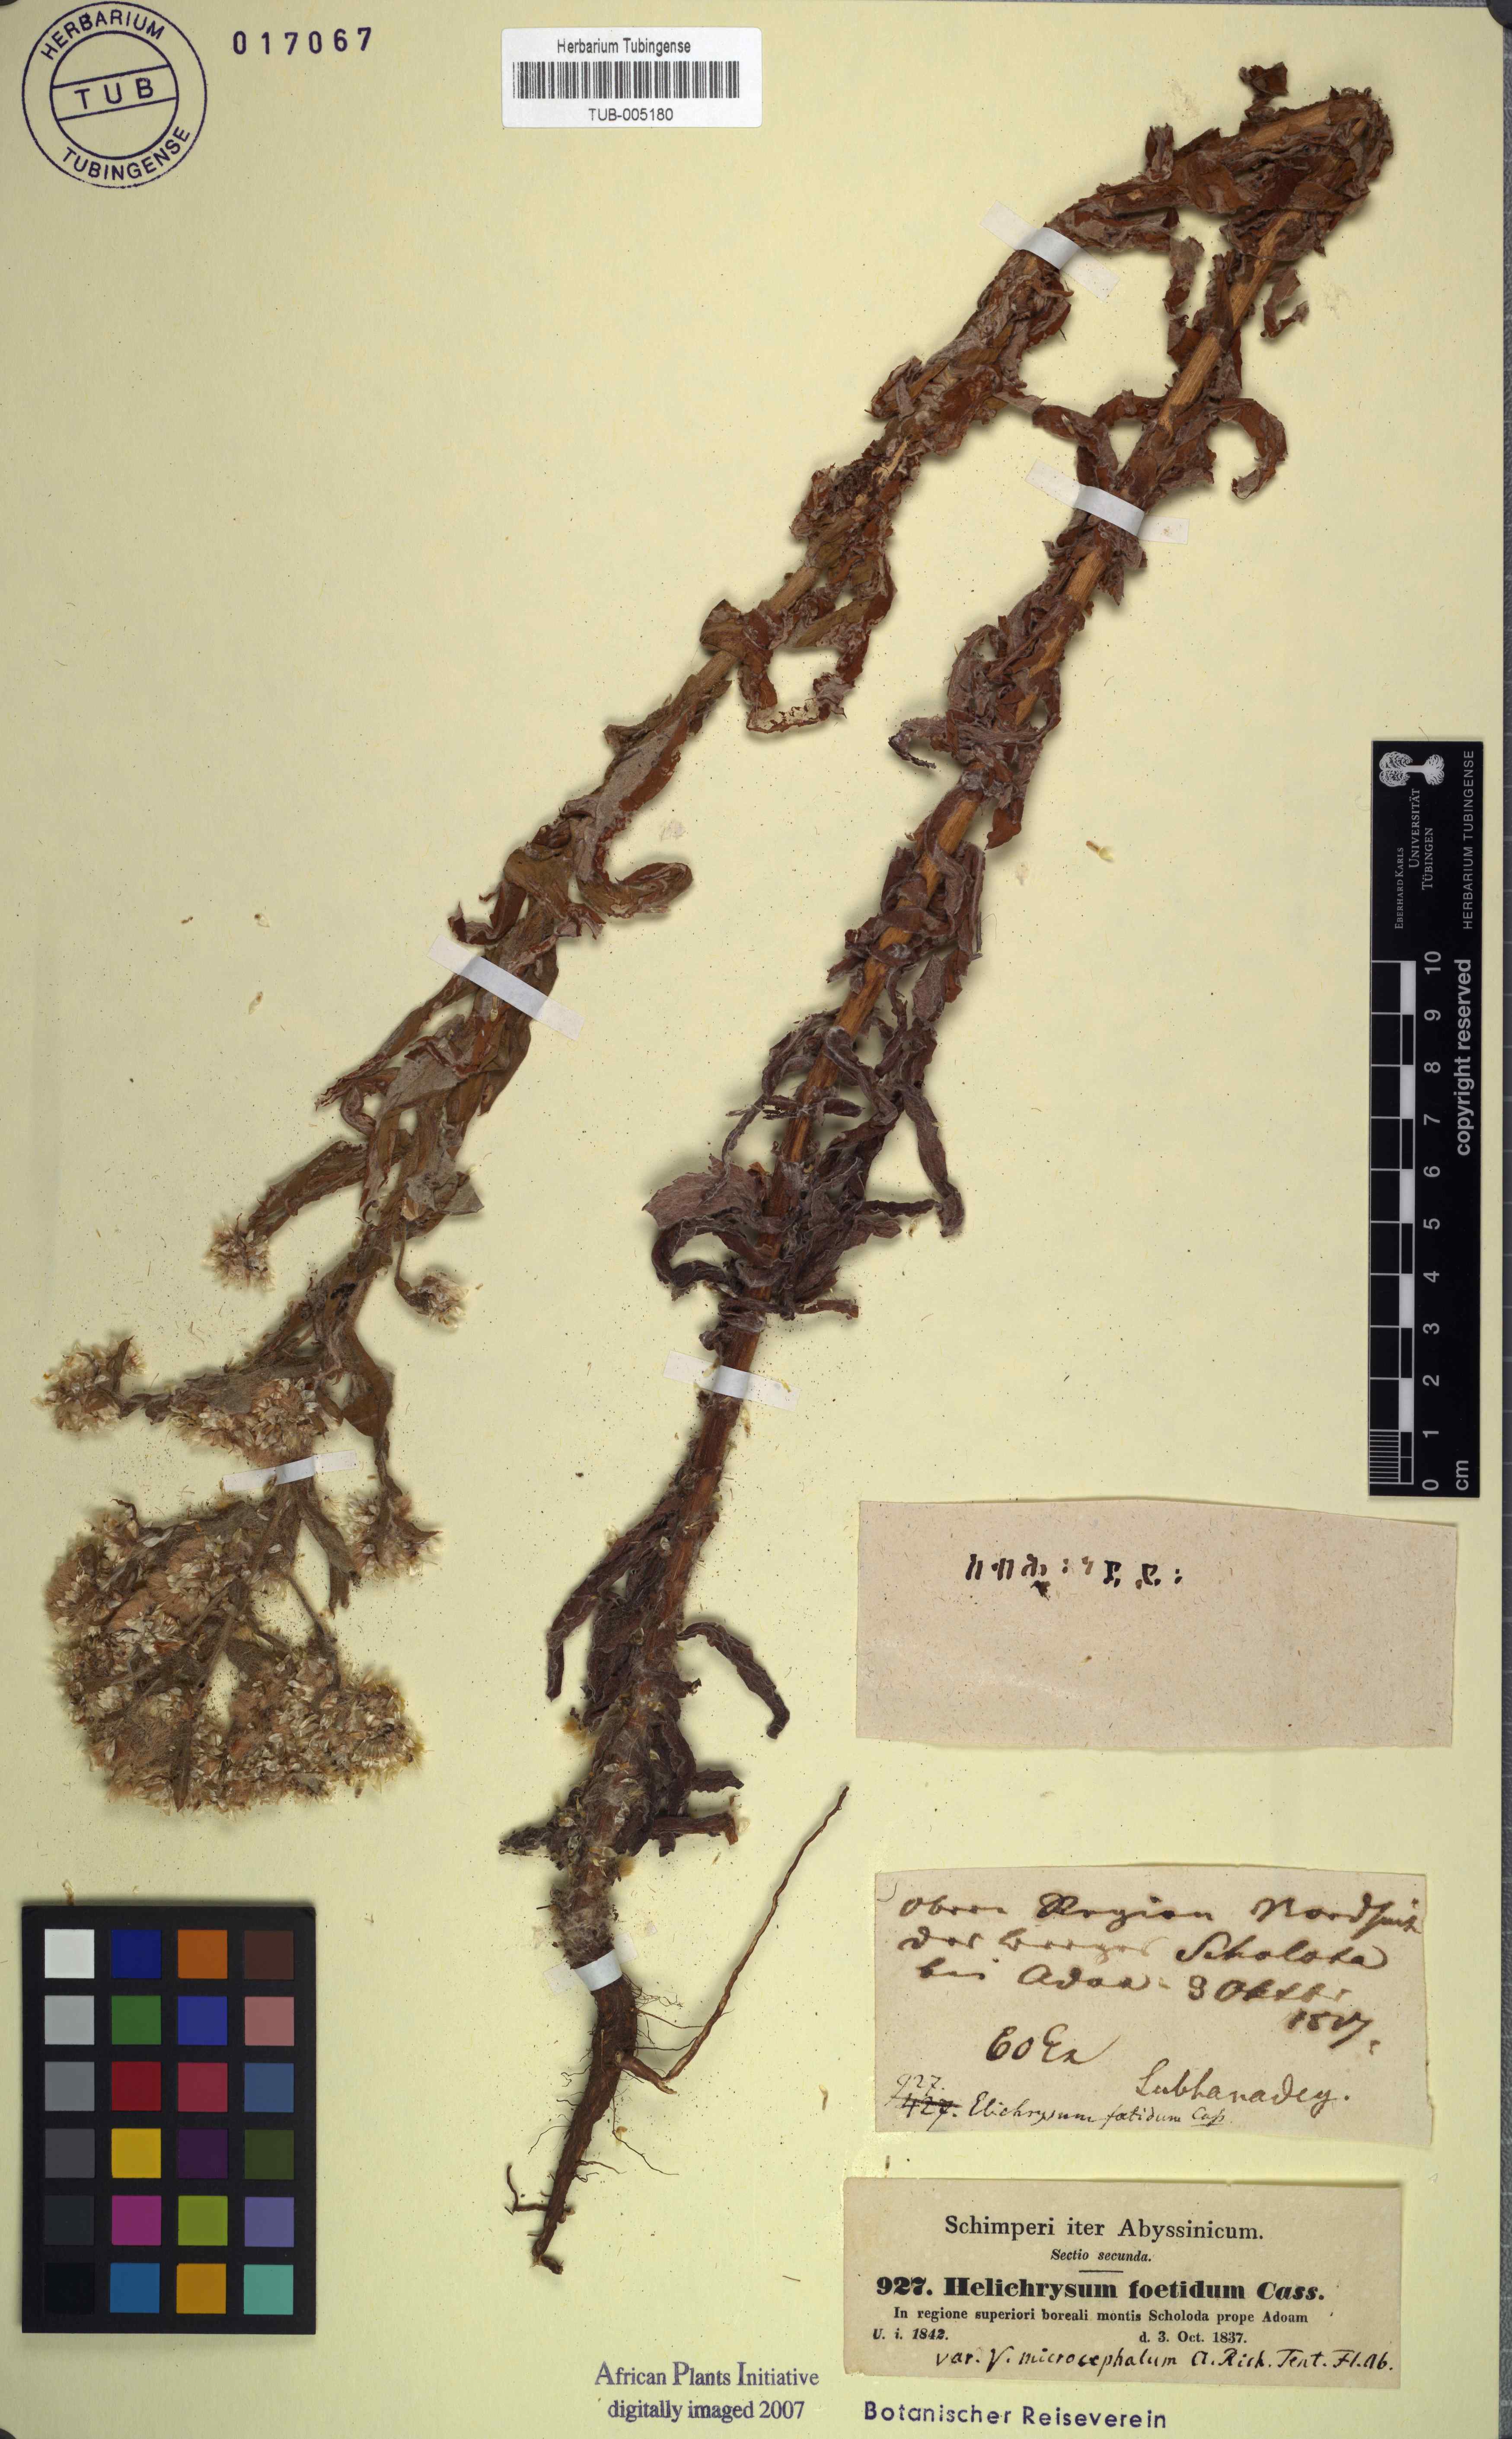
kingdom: Plantae
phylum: Tracheophyta
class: Magnoliopsida
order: Asterales
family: Asteraceae
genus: Helichrysum
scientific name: Helichrysum foetidum
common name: Stinking everlasting
